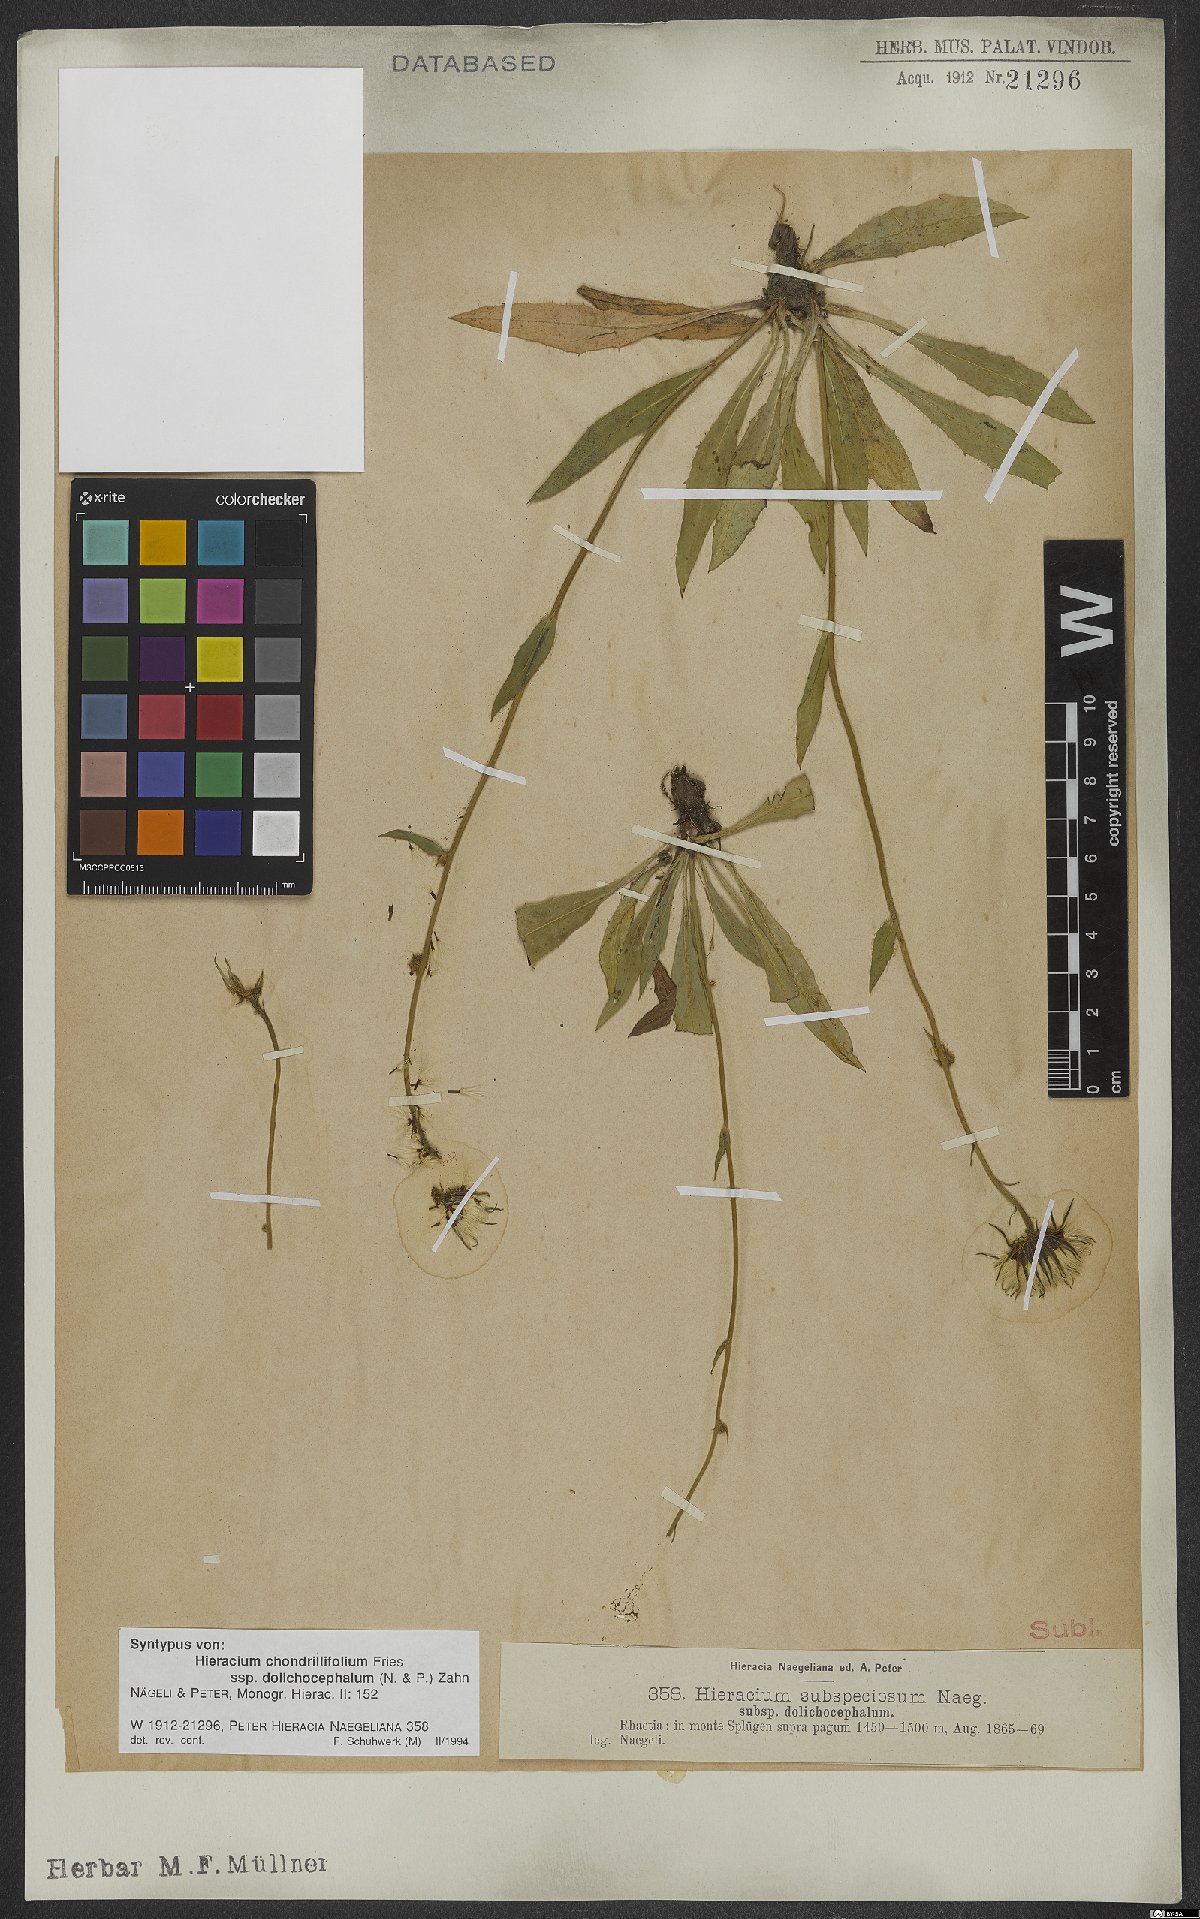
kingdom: Plantae
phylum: Tracheophyta
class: Magnoliopsida
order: Asterales
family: Asteraceae
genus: Hieracium
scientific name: Hieracium chondrillifolium
